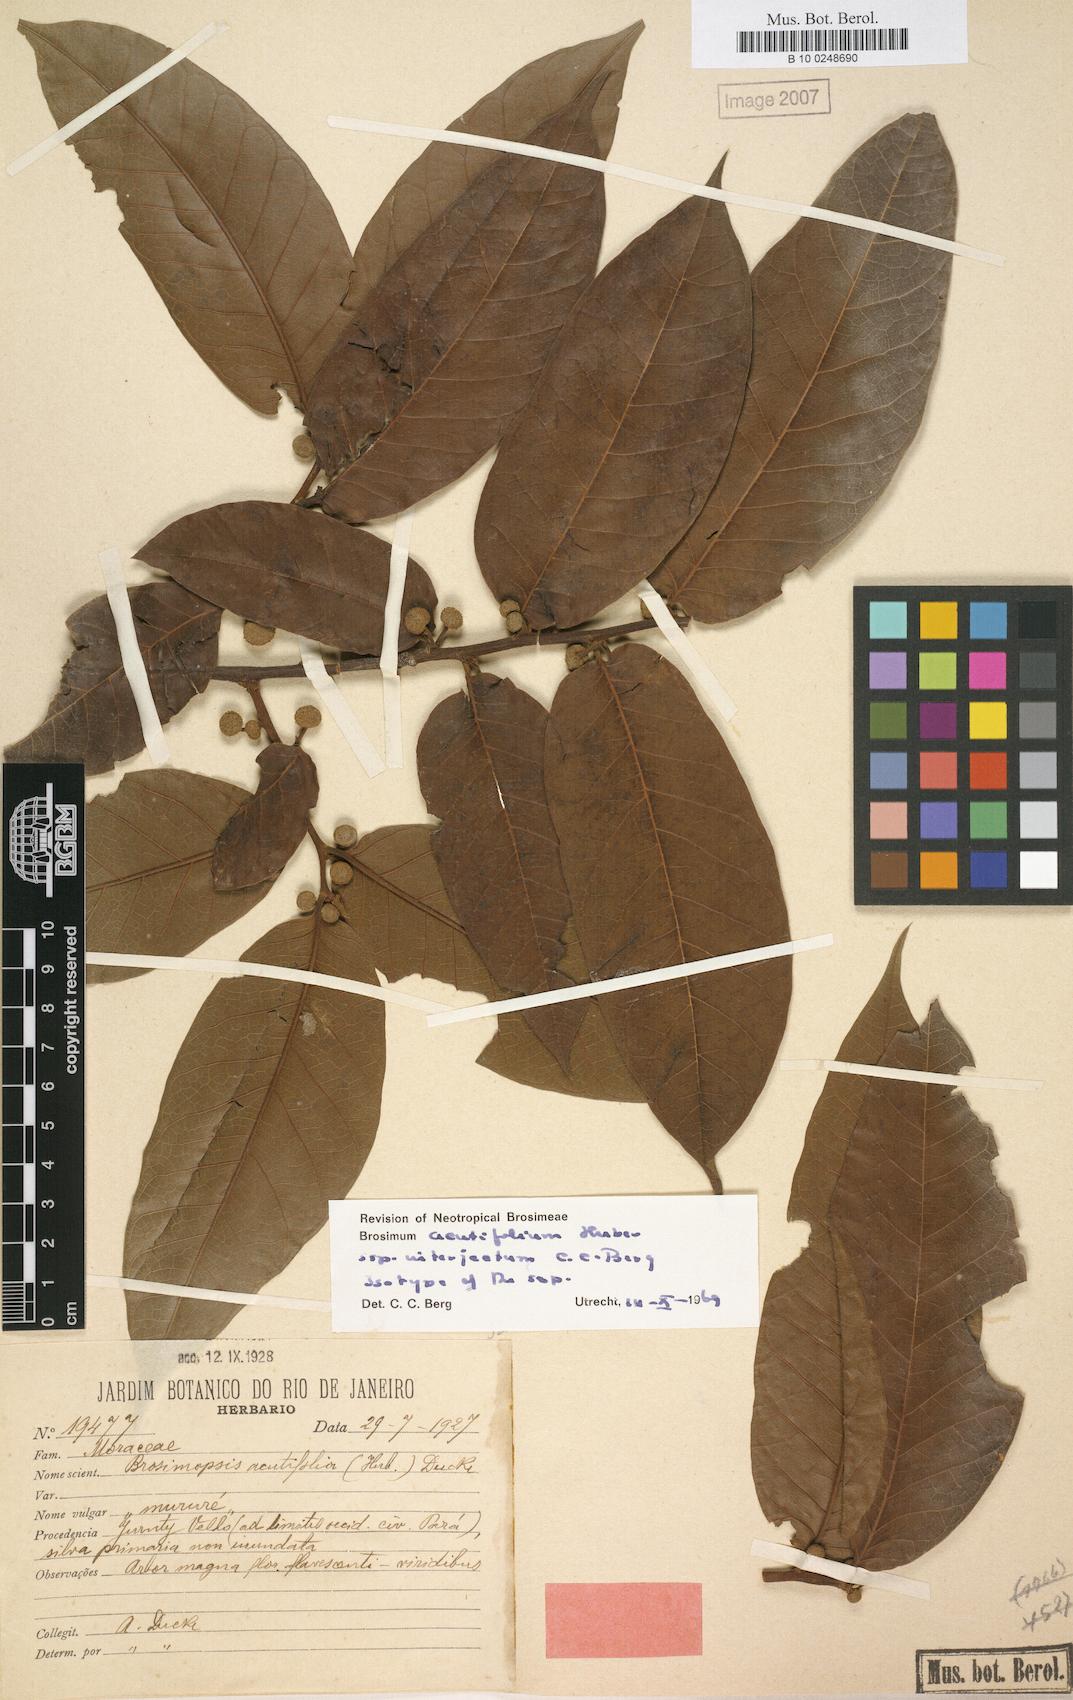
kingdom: Plantae
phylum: Tracheophyta
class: Magnoliopsida
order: Rosales
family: Moraceae
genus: Brosimum
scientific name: Brosimum acutifolium
